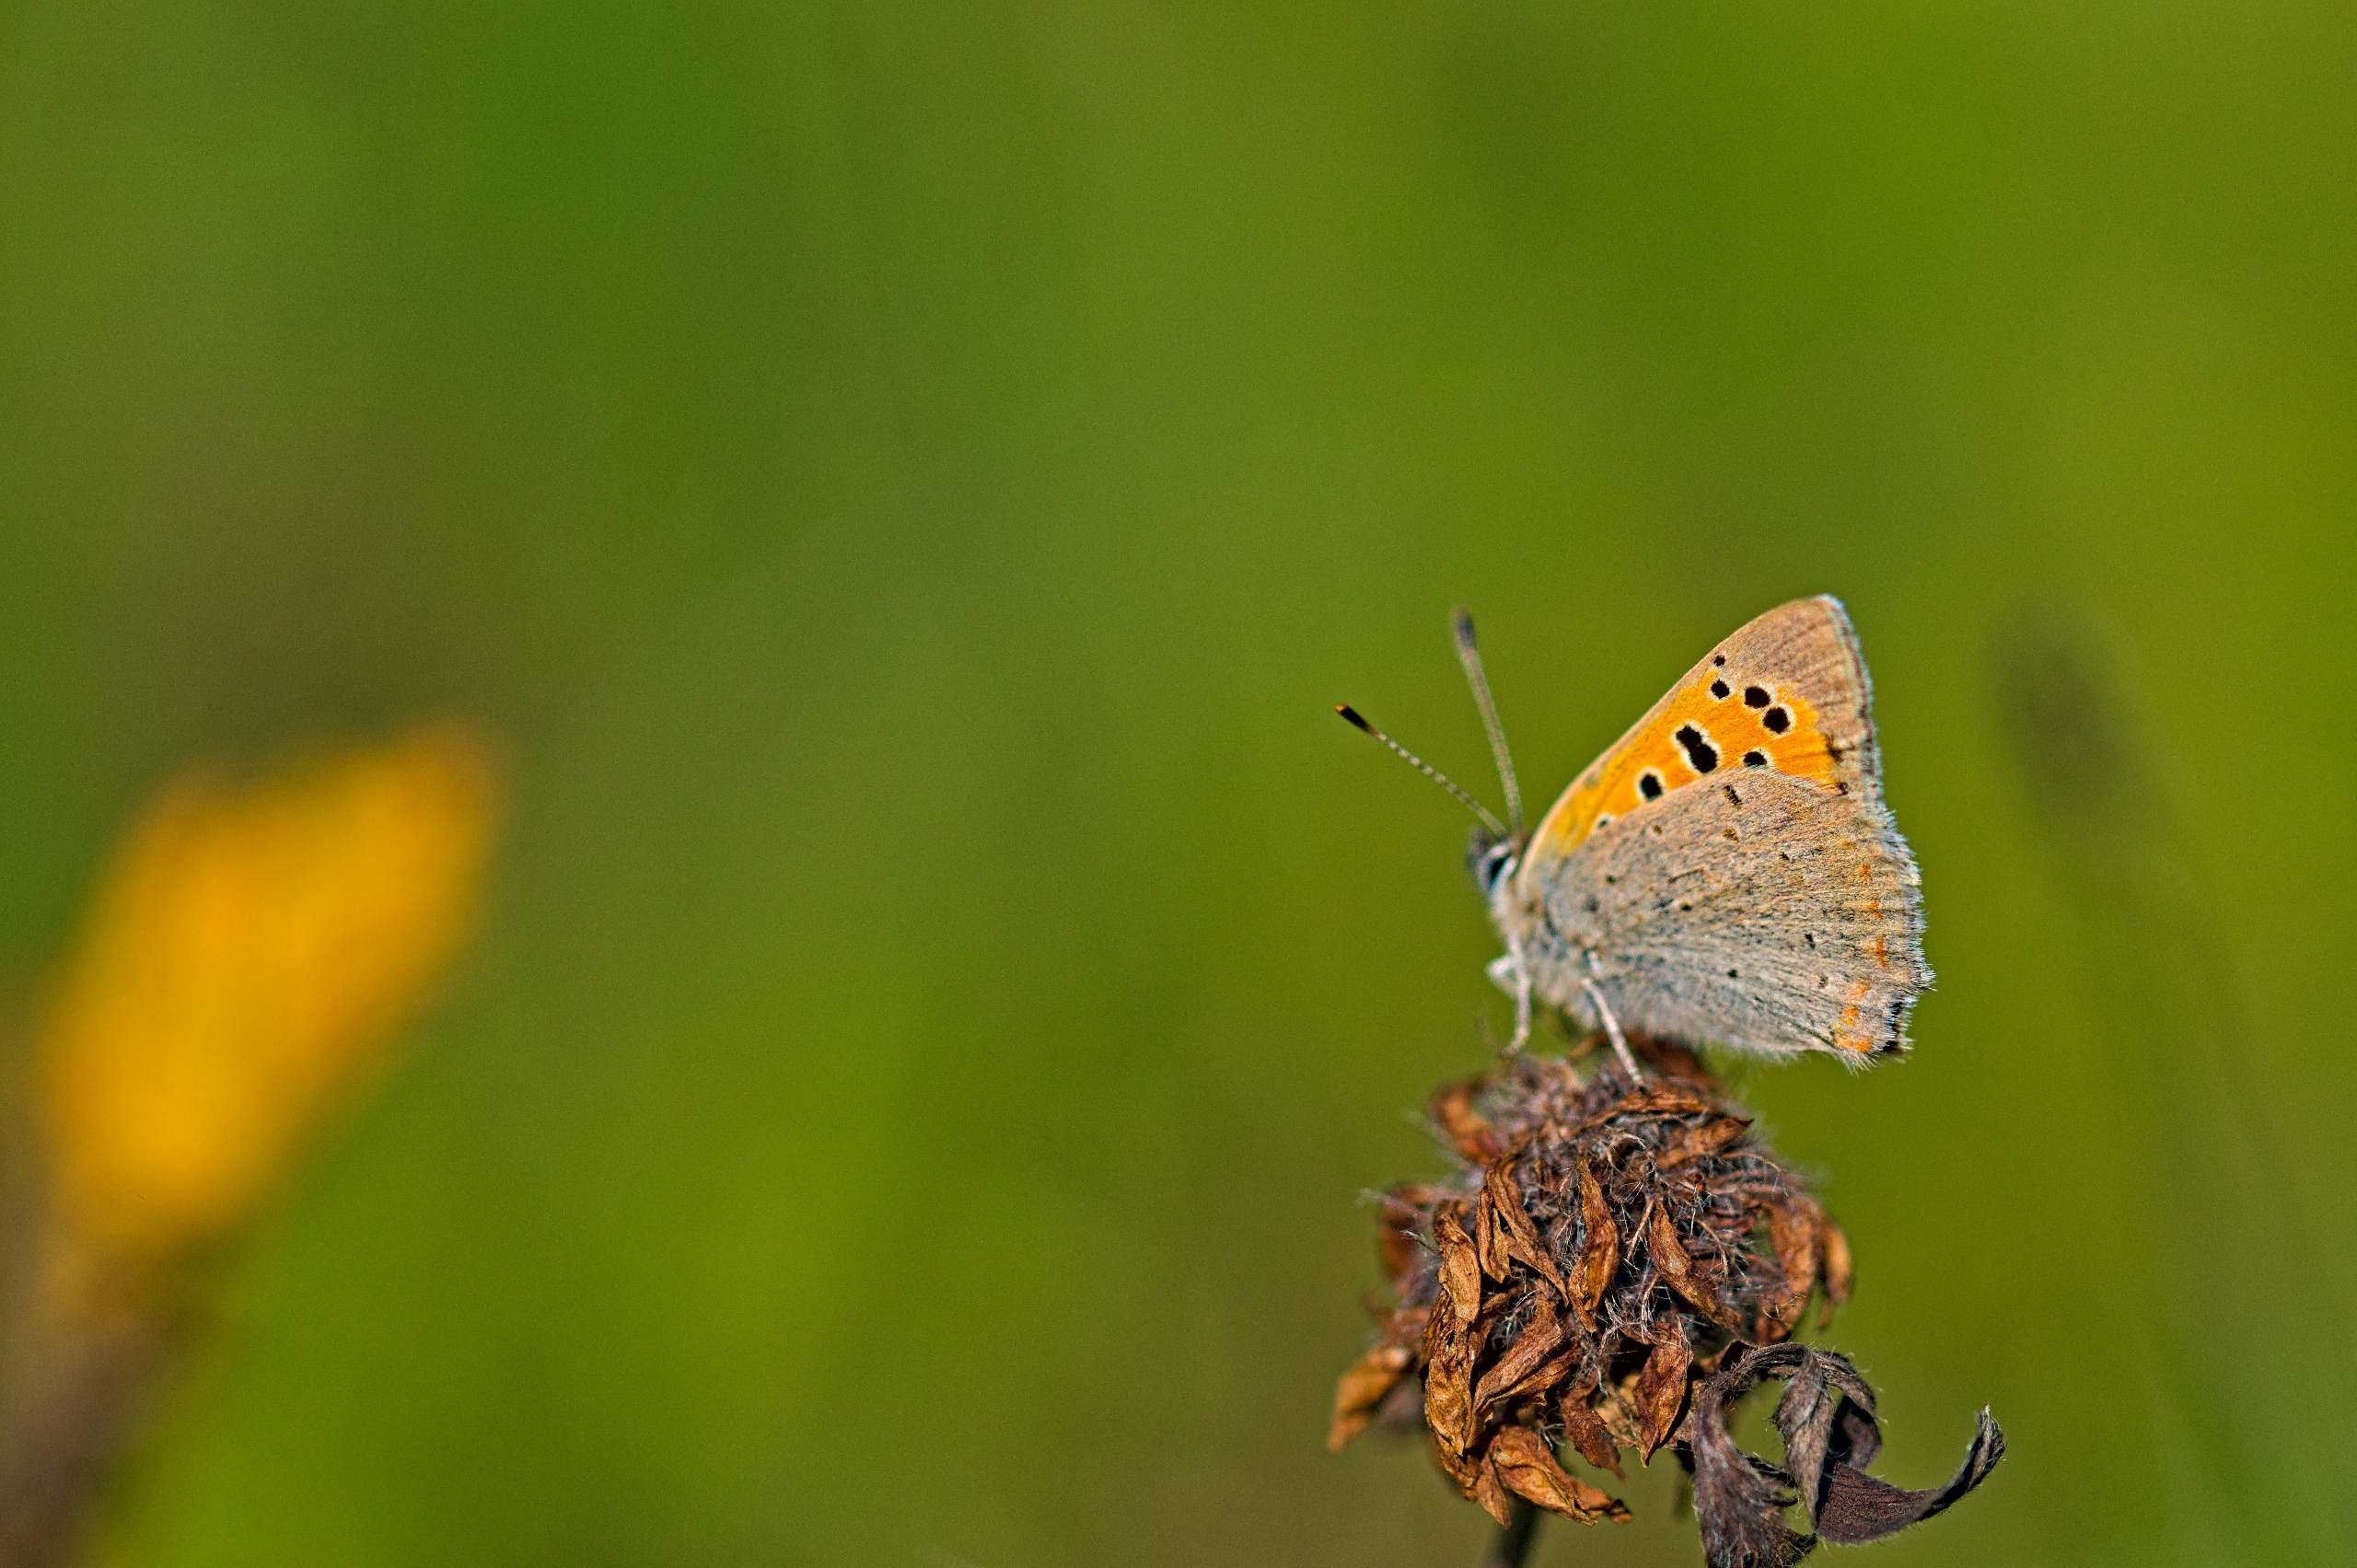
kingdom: Animalia
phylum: Arthropoda
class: Insecta
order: Lepidoptera
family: Lycaenidae
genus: Lycaena
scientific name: Lycaena phlaeas
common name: Lille ildfugl
